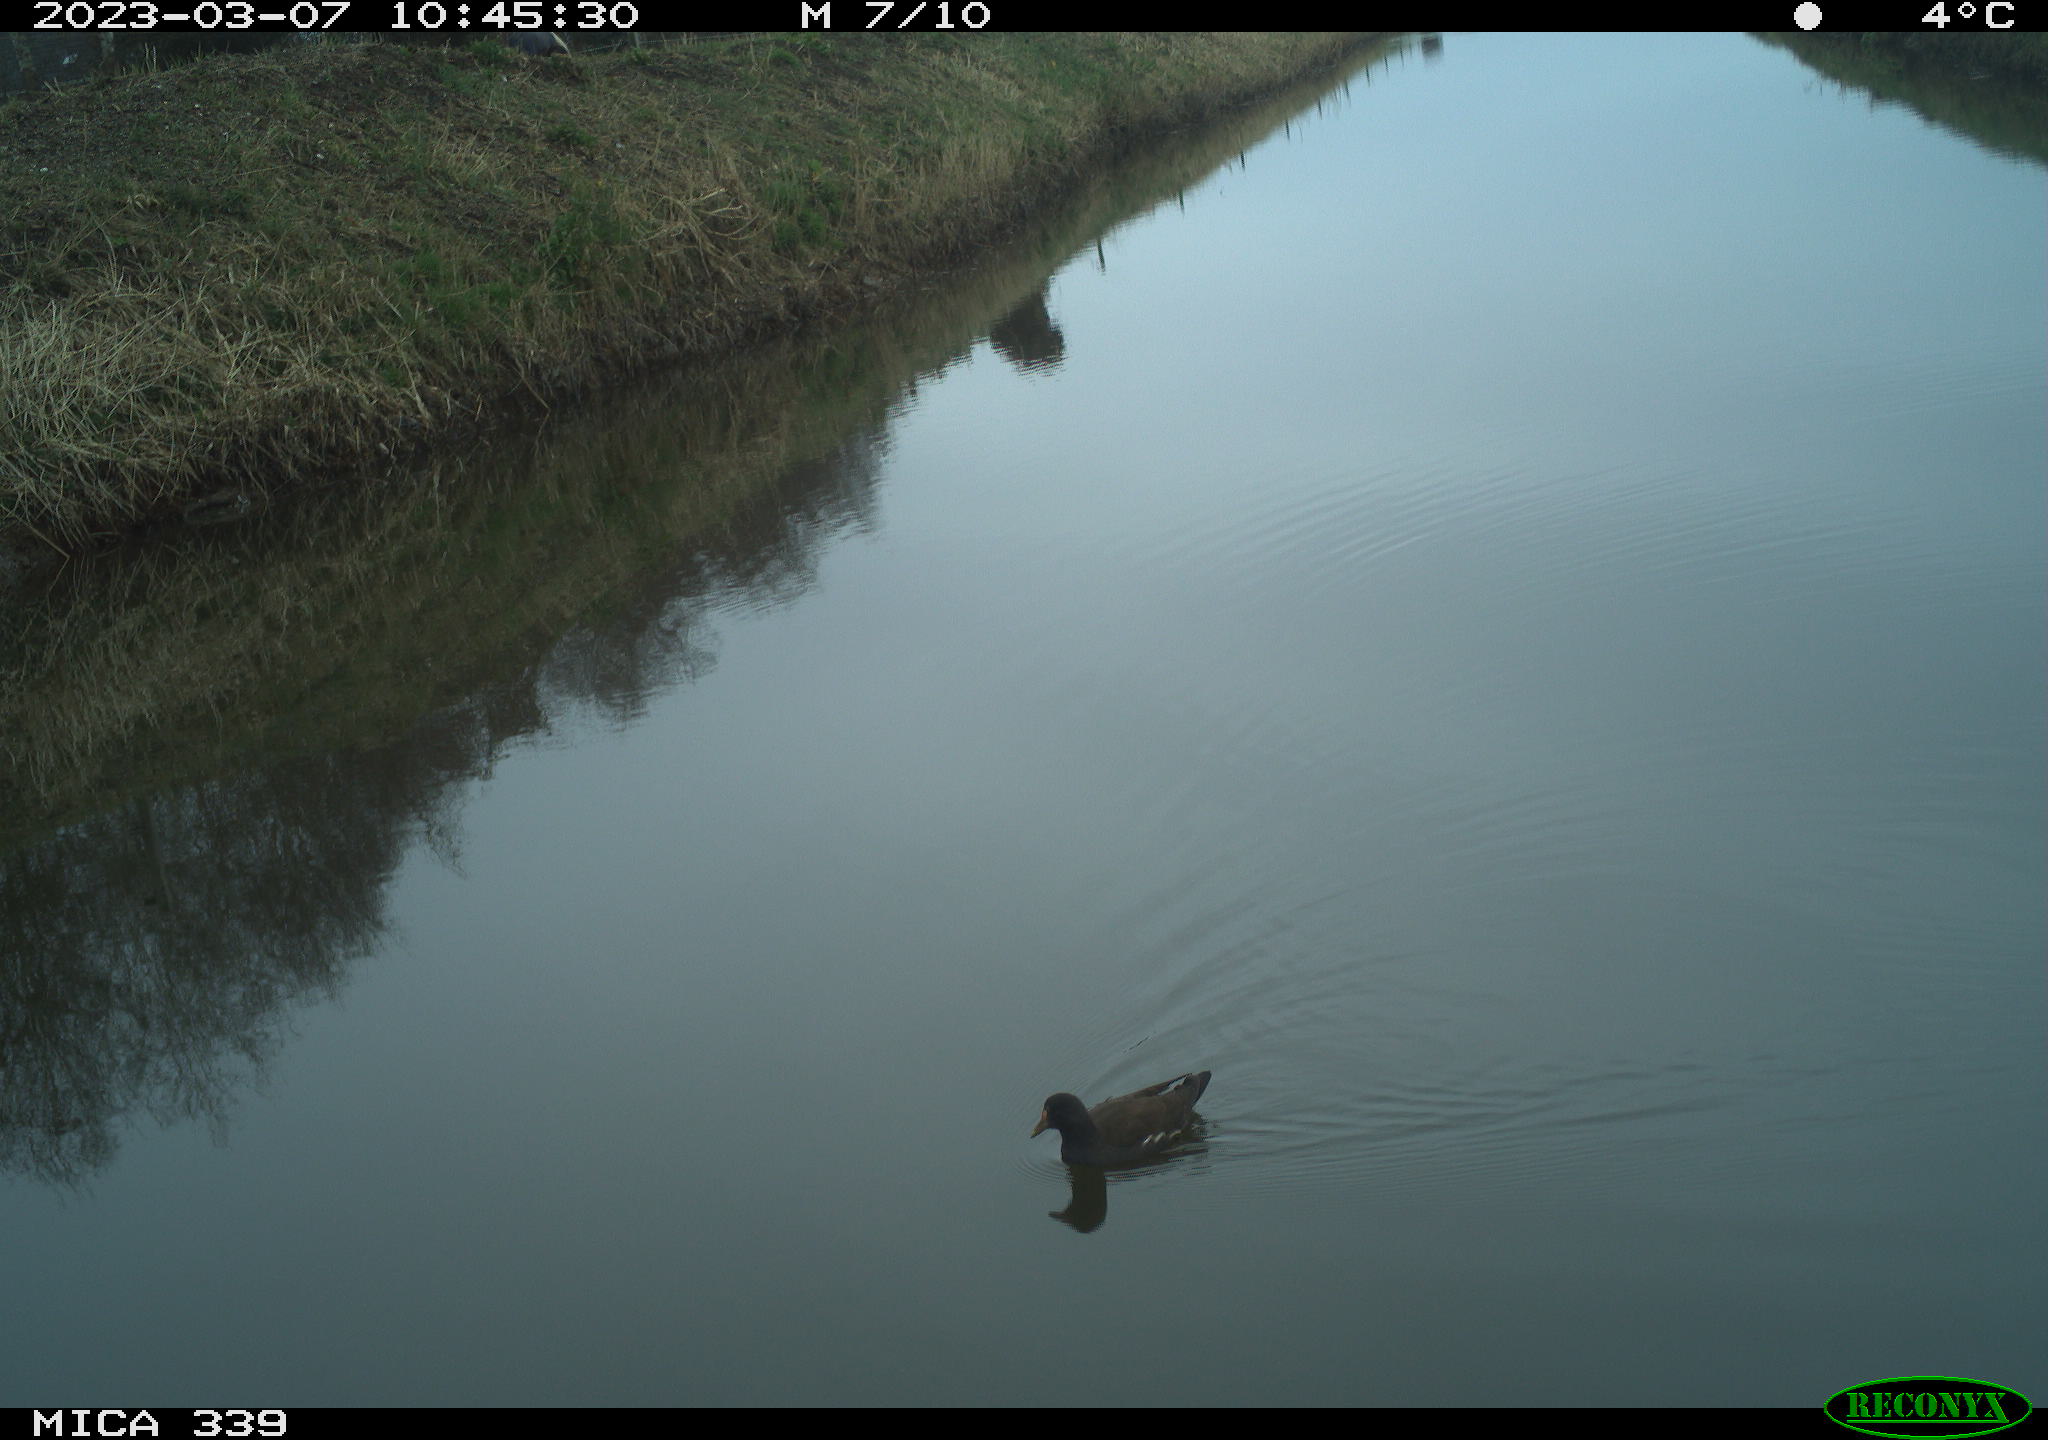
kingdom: Animalia
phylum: Chordata
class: Aves
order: Gruiformes
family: Rallidae
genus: Gallinula
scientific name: Gallinula chloropus
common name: Common moorhen
